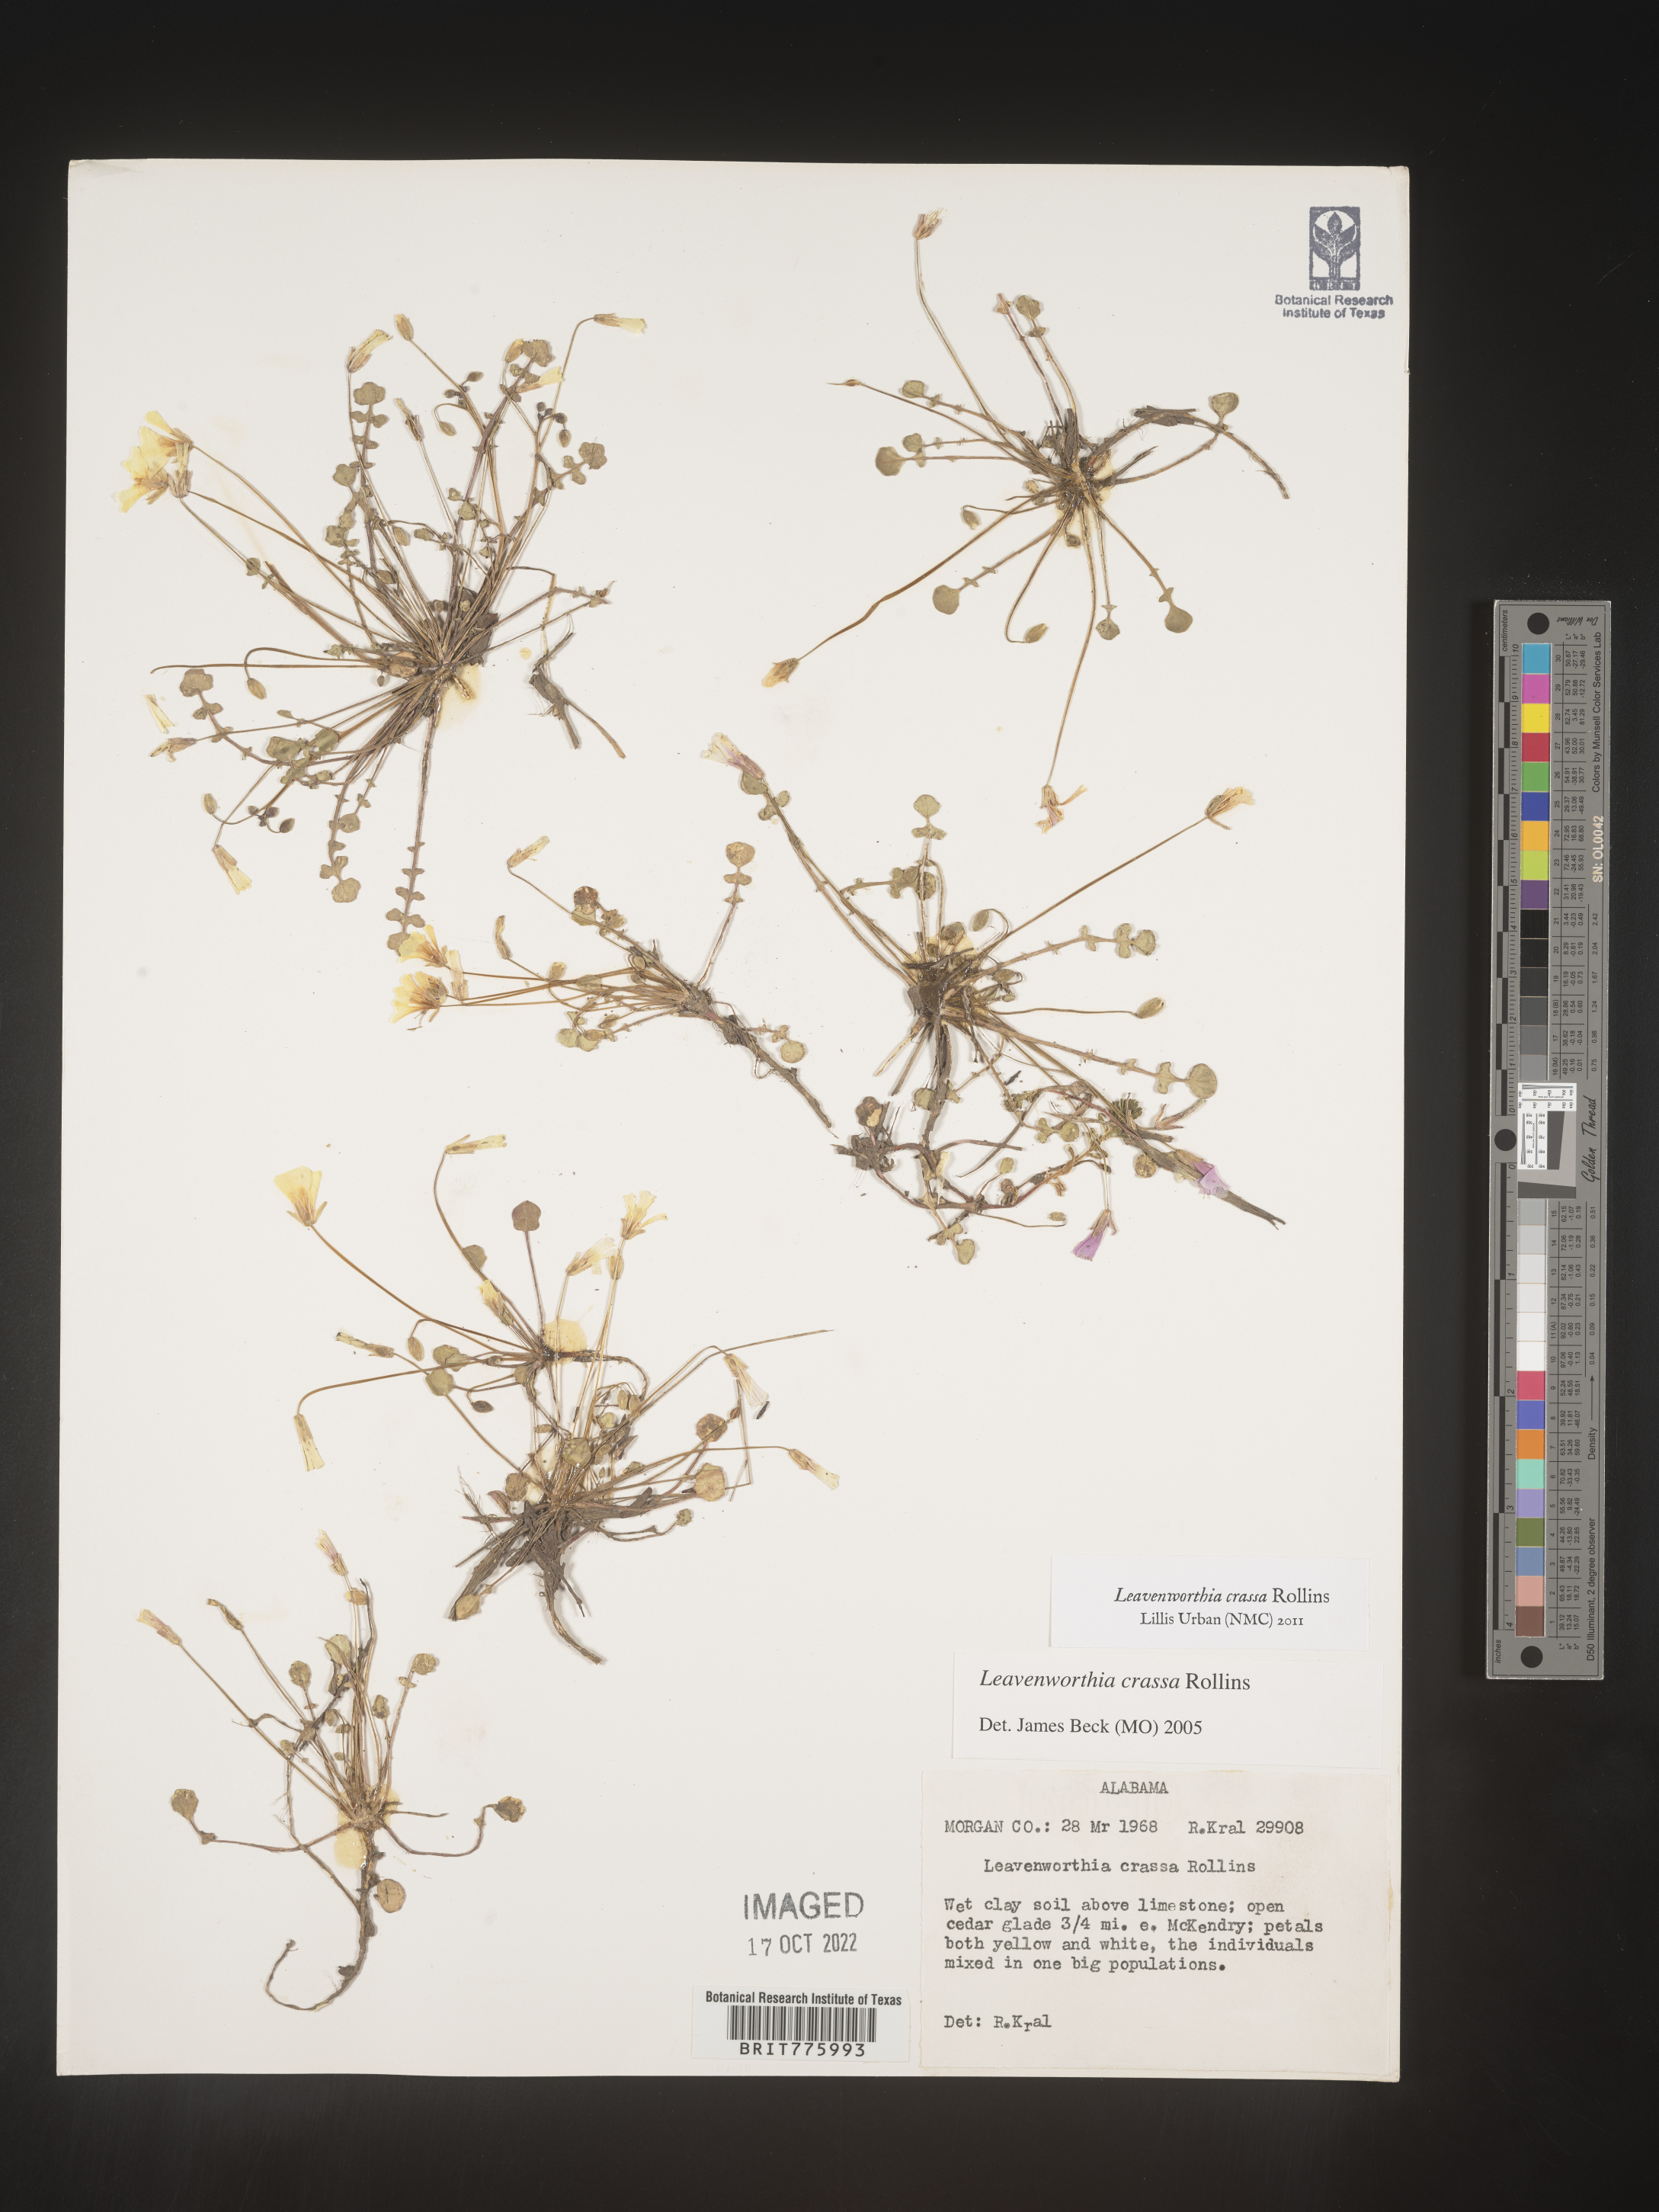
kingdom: Plantae
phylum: Tracheophyta
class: Magnoliopsida
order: Brassicales
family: Brassicaceae
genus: Leavenworthia
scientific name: Leavenworthia
